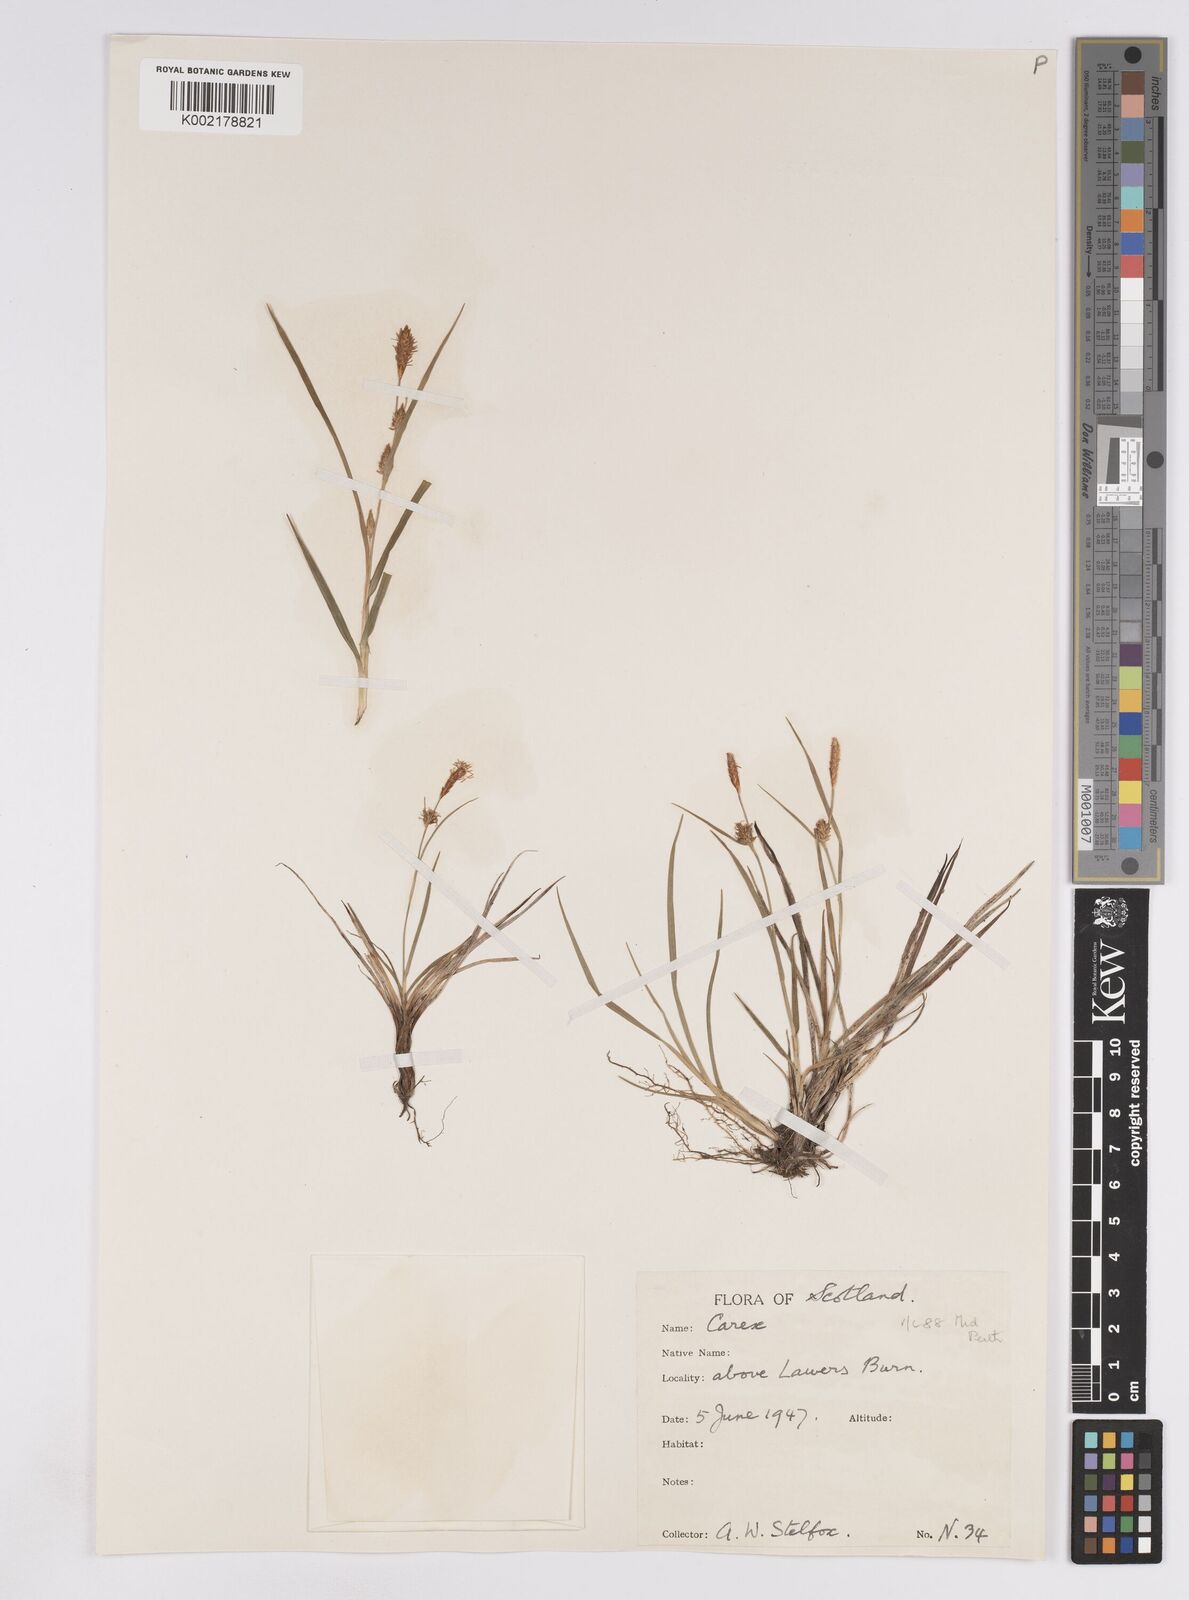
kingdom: Plantae
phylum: Tracheophyta
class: Liliopsida
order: Poales
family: Cyperaceae
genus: Carex
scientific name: Carex lepidocarpa
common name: Long-stalked yellow-sedge
